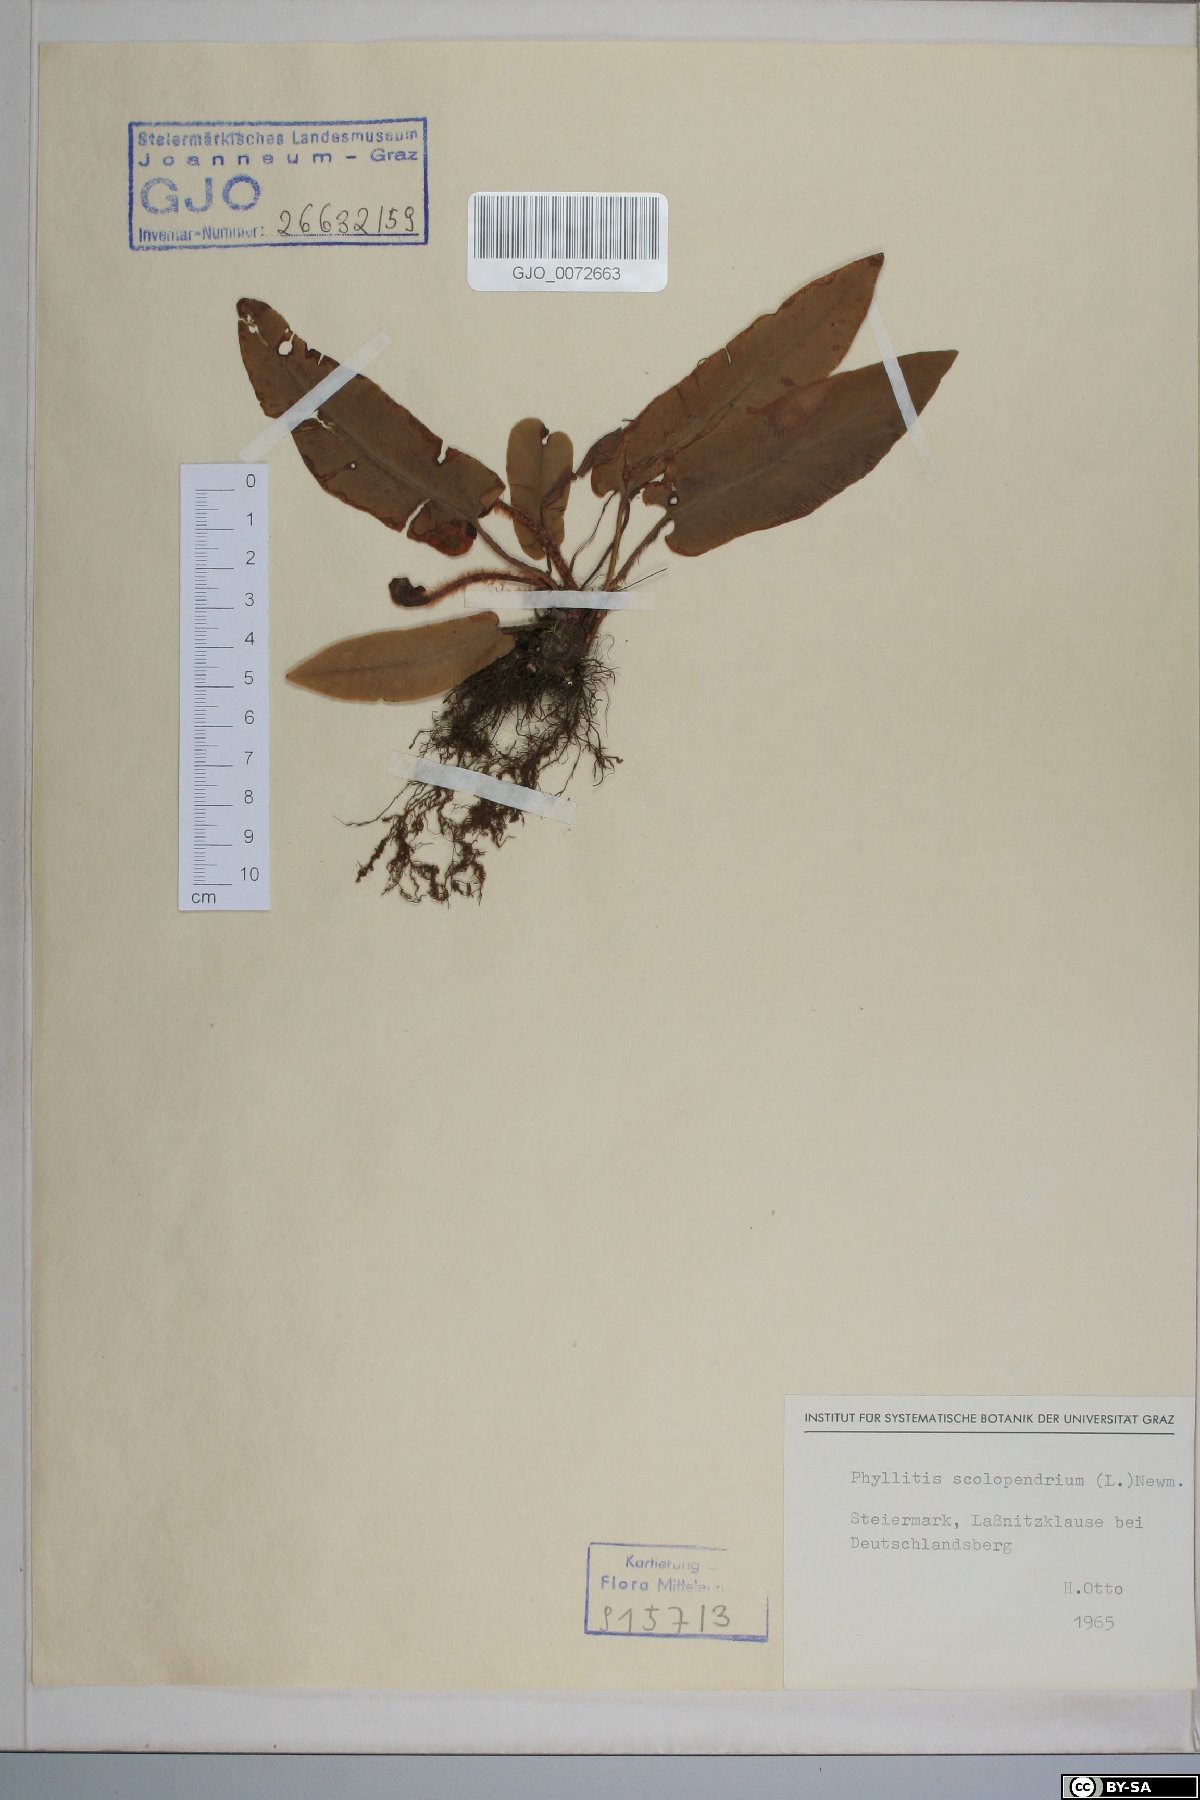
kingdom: Plantae
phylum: Tracheophyta
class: Polypodiopsida
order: Polypodiales
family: Aspleniaceae
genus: Asplenium
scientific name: Asplenium scolopendrium
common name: Hart's-tongue fern
